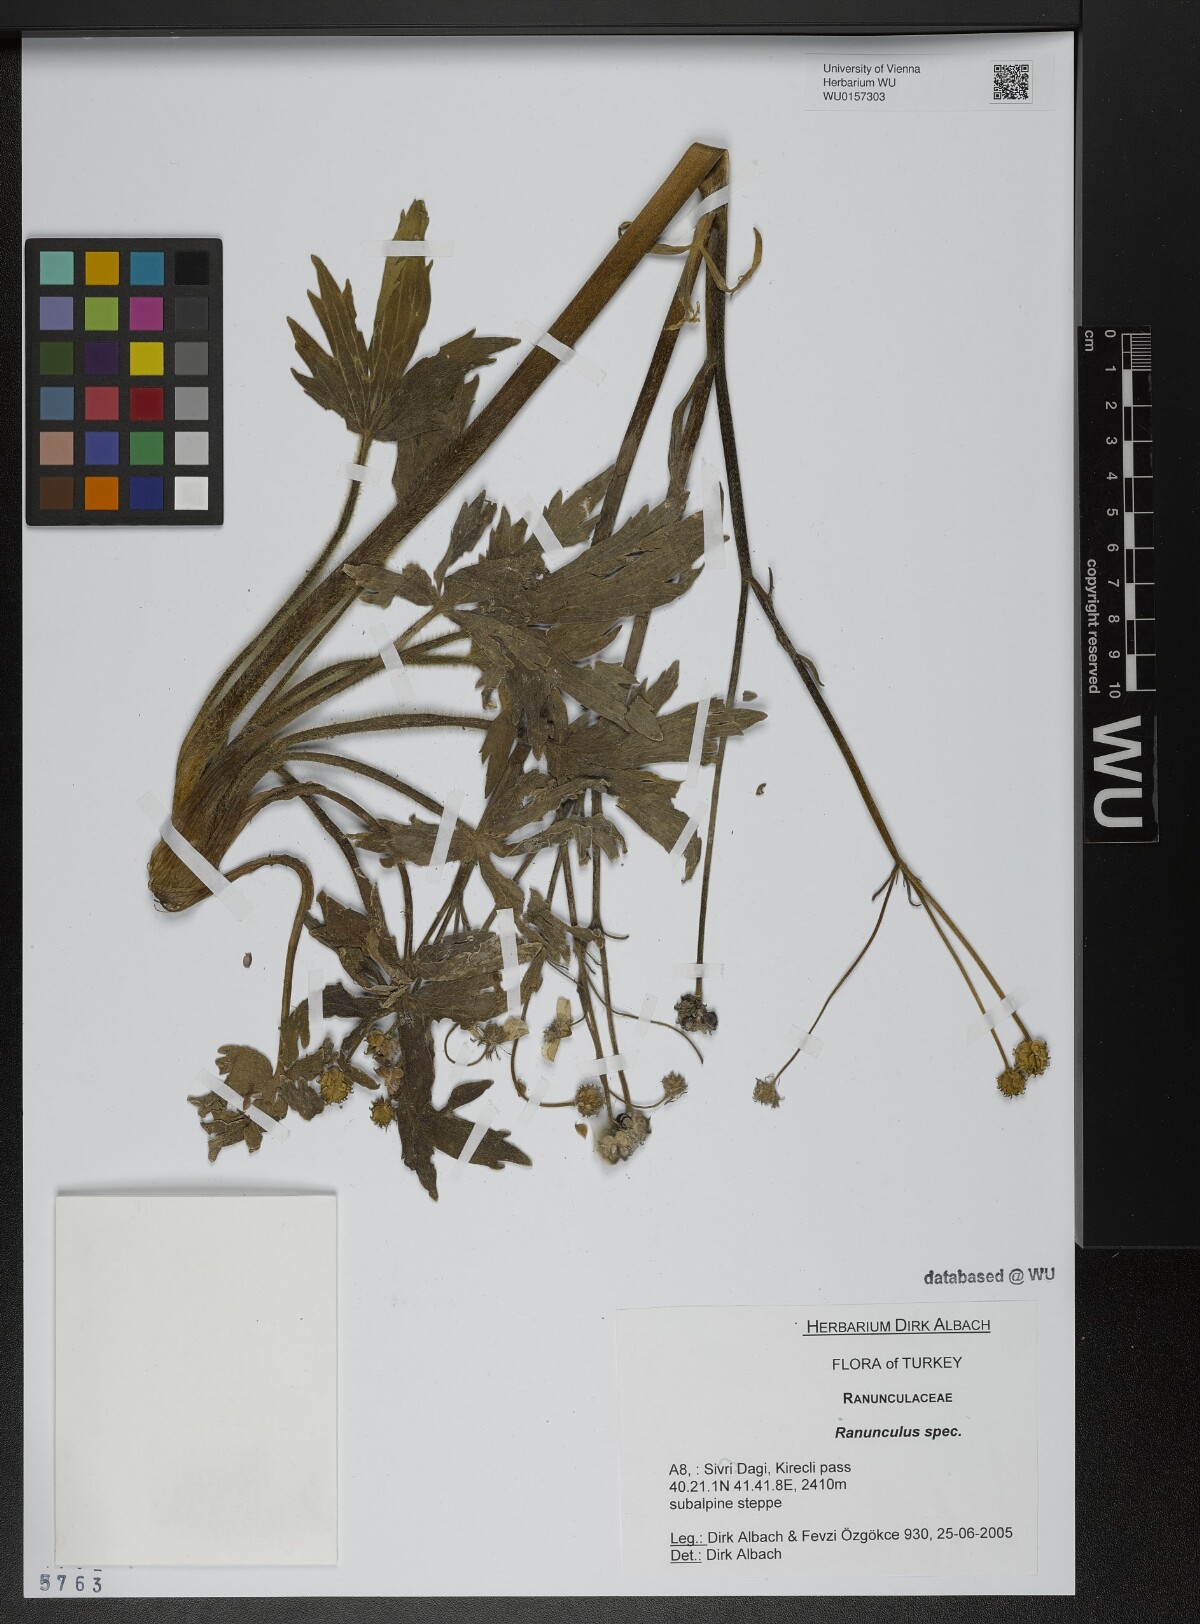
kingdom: Plantae
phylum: Tracheophyta
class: Magnoliopsida
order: Ranunculales
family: Ranunculaceae
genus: Ranunculus
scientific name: Ranunculus
